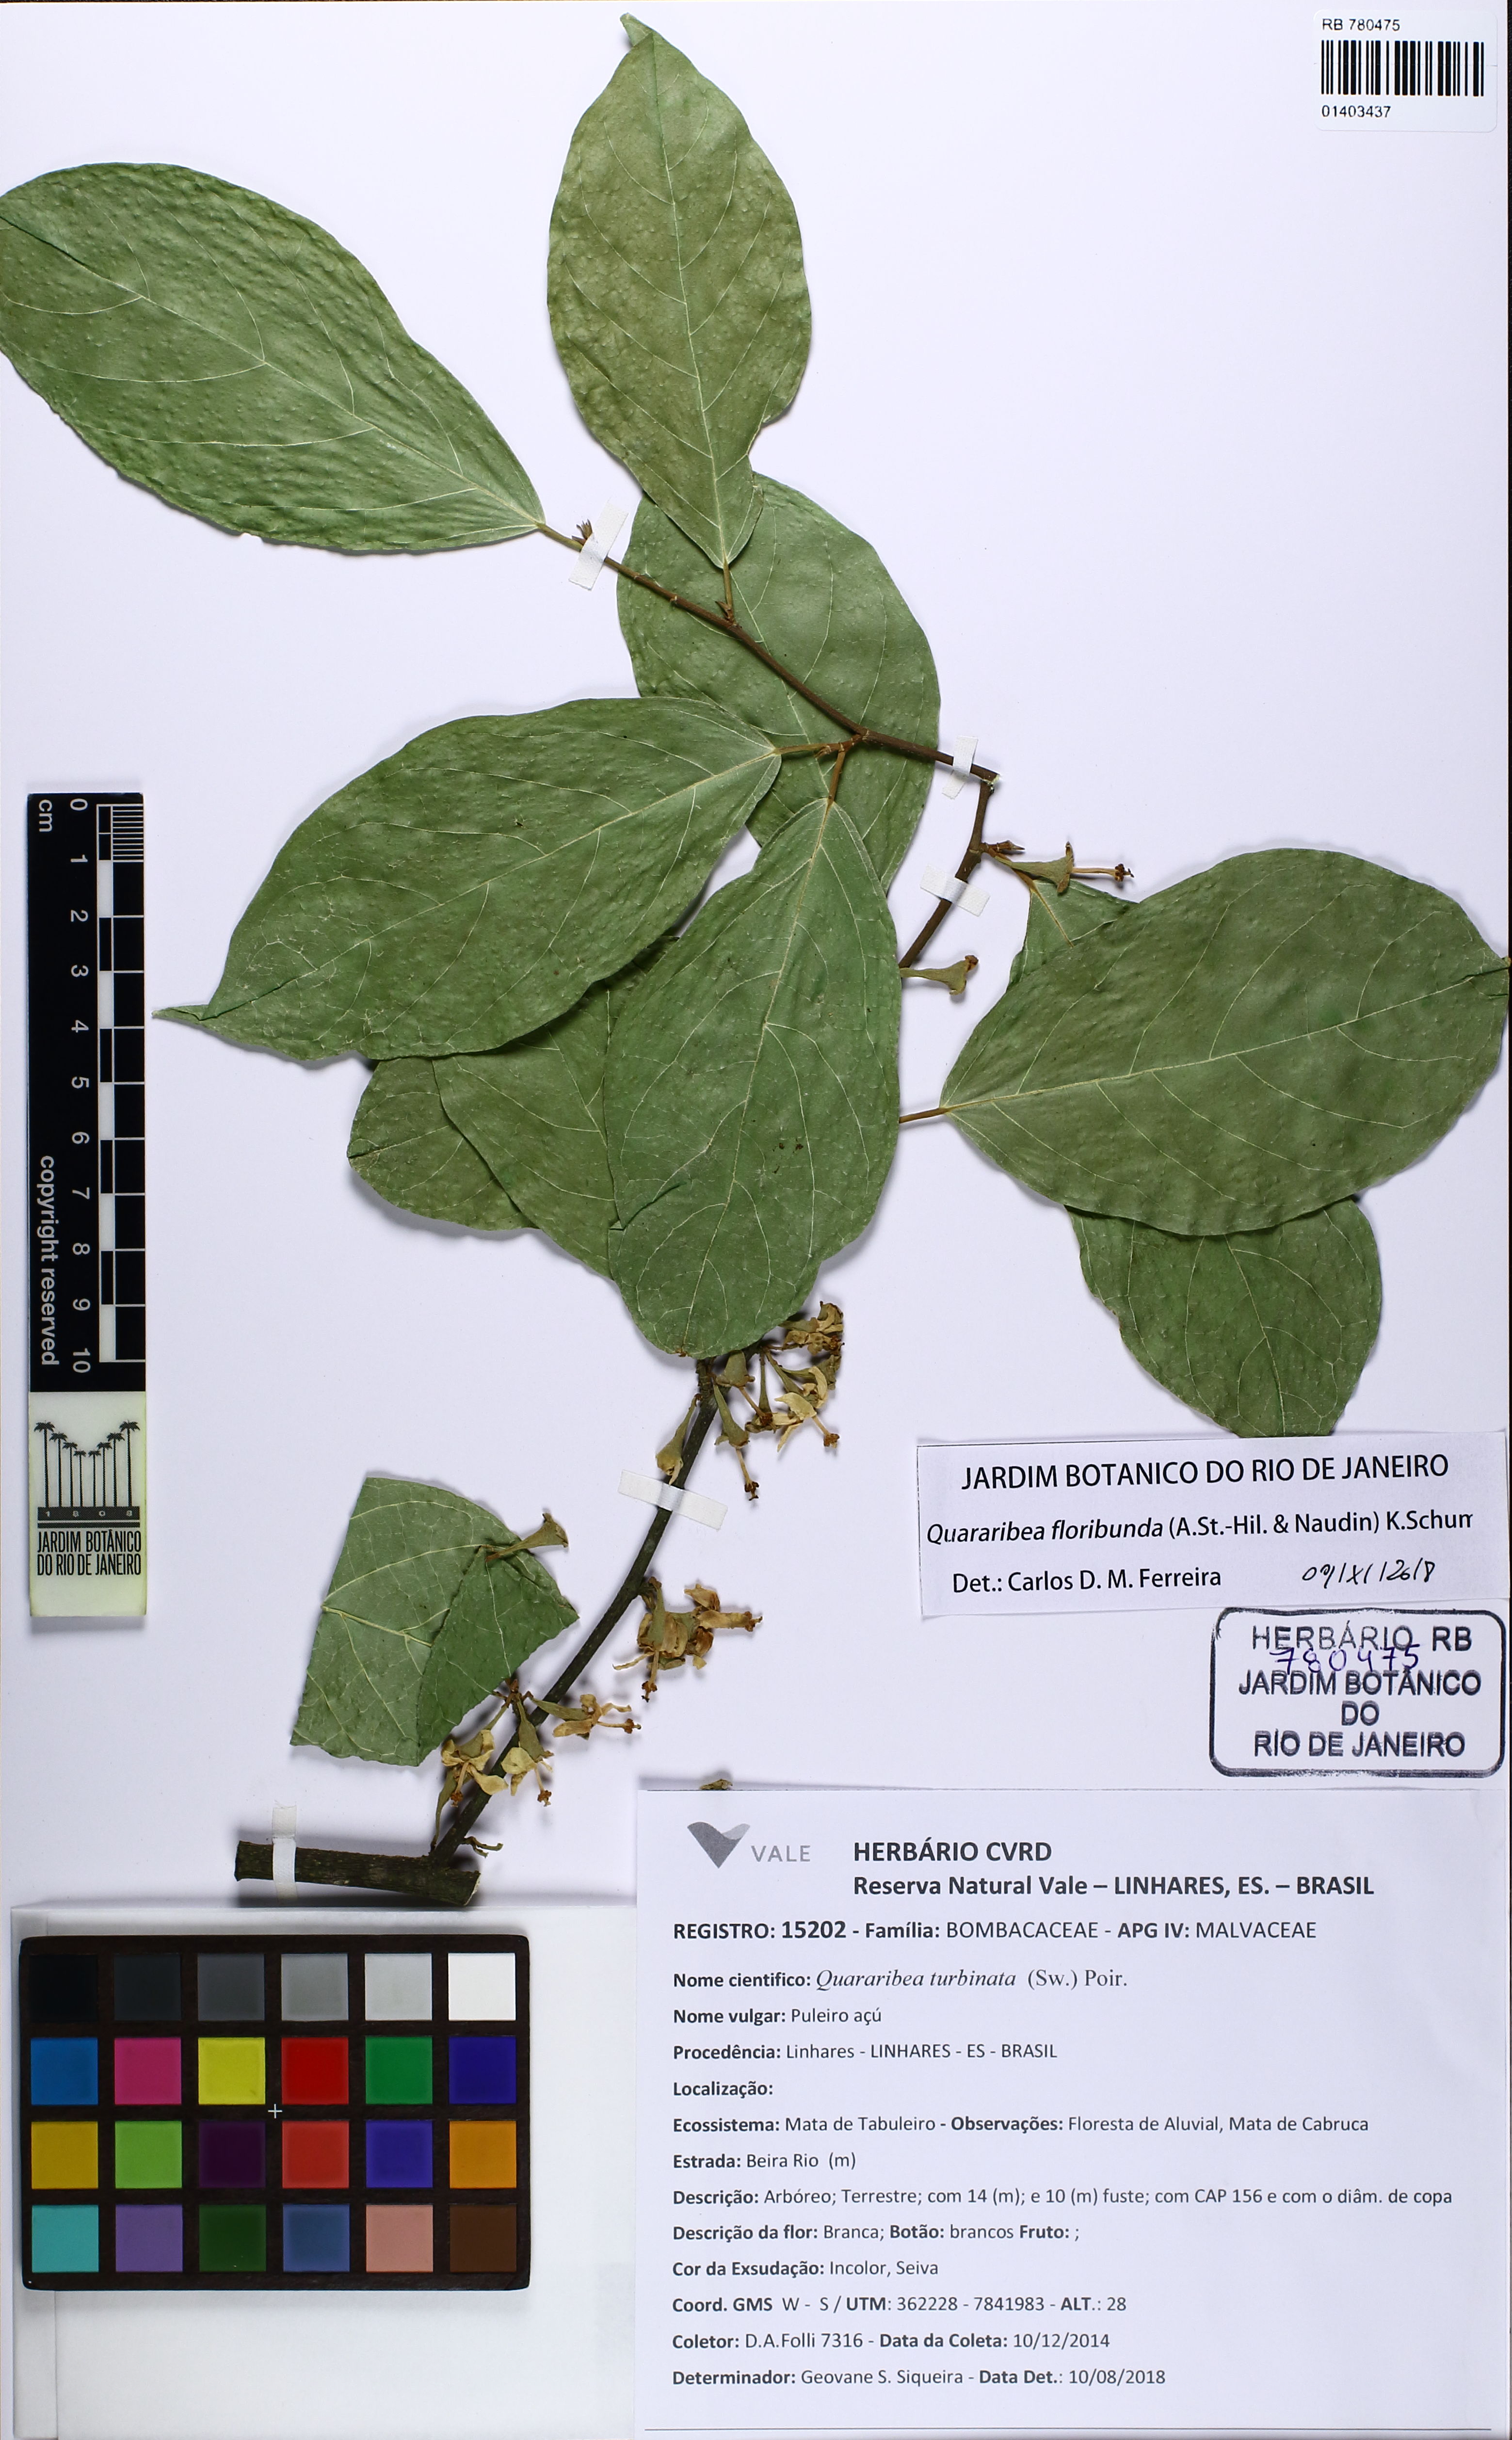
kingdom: Plantae
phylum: Tracheophyta
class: Magnoliopsida
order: Malvales
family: Malvaceae
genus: Quararibea
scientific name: Quararibea floribunda
